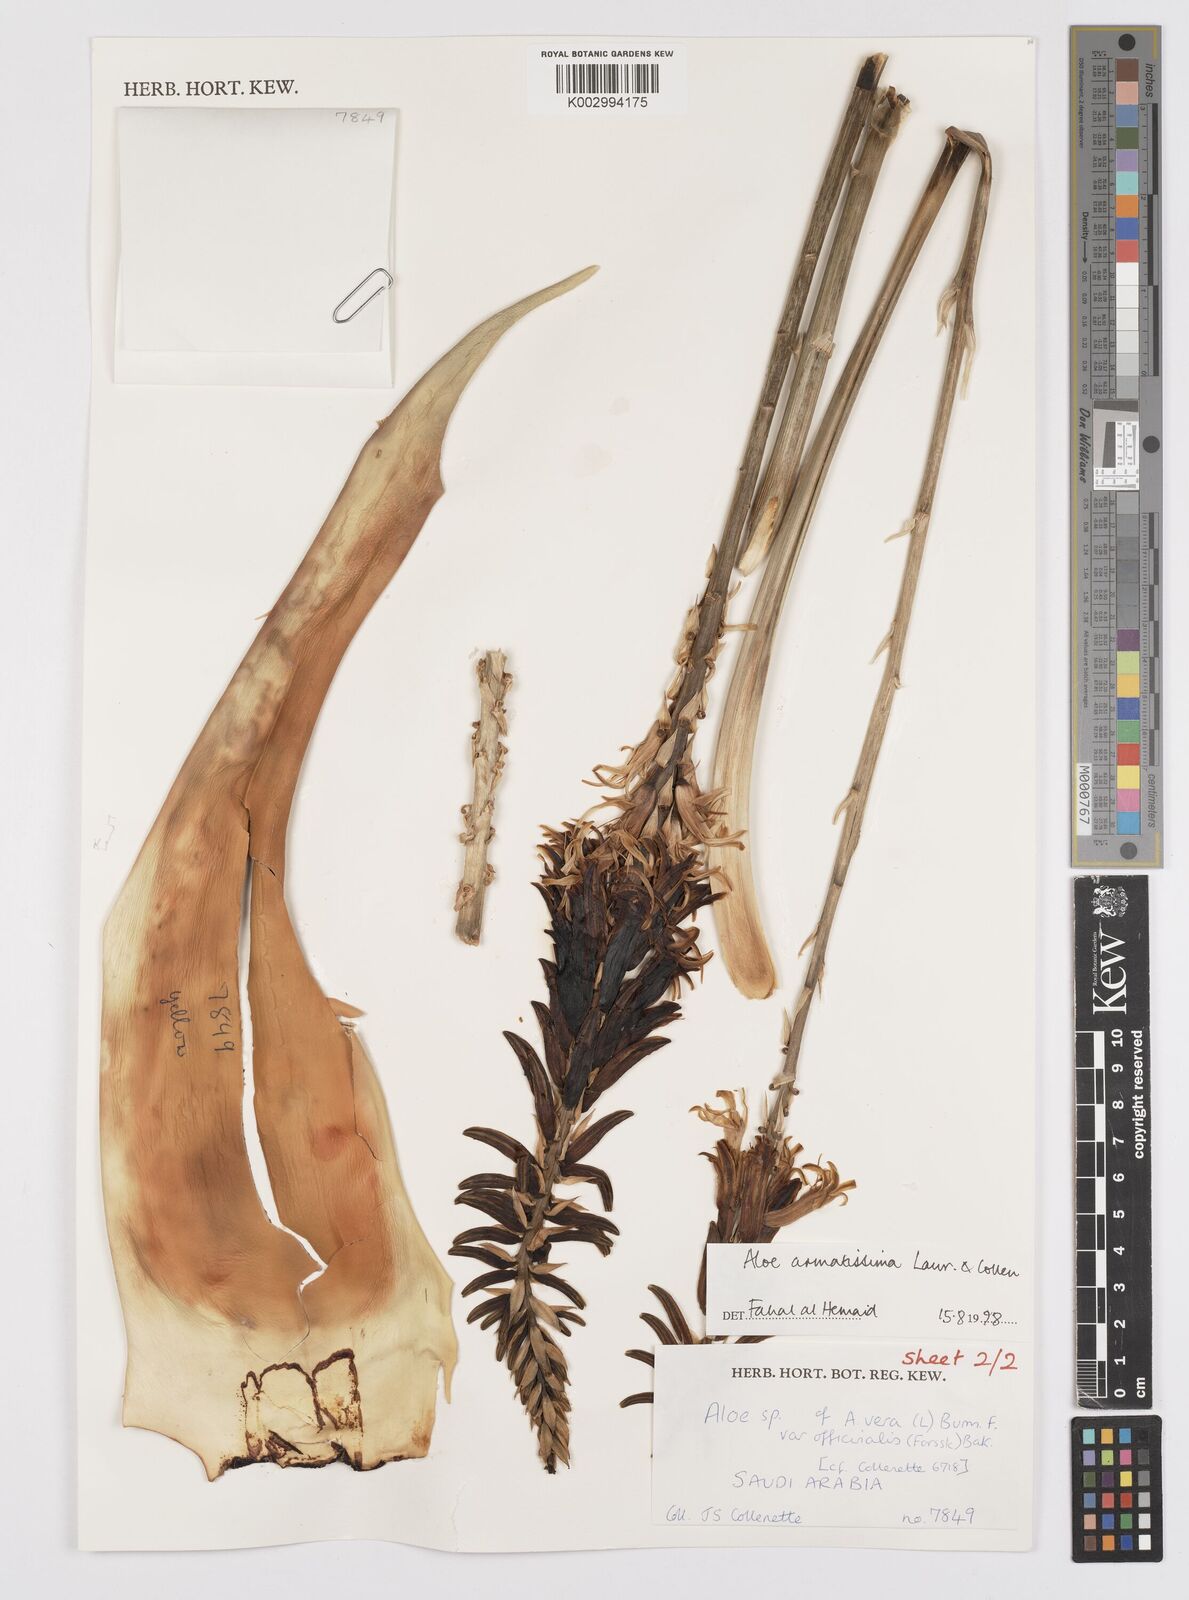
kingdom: Plantae
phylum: Tracheophyta
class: Liliopsida
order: Asparagales
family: Asphodelaceae
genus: Aloe
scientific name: Aloe armatissima
